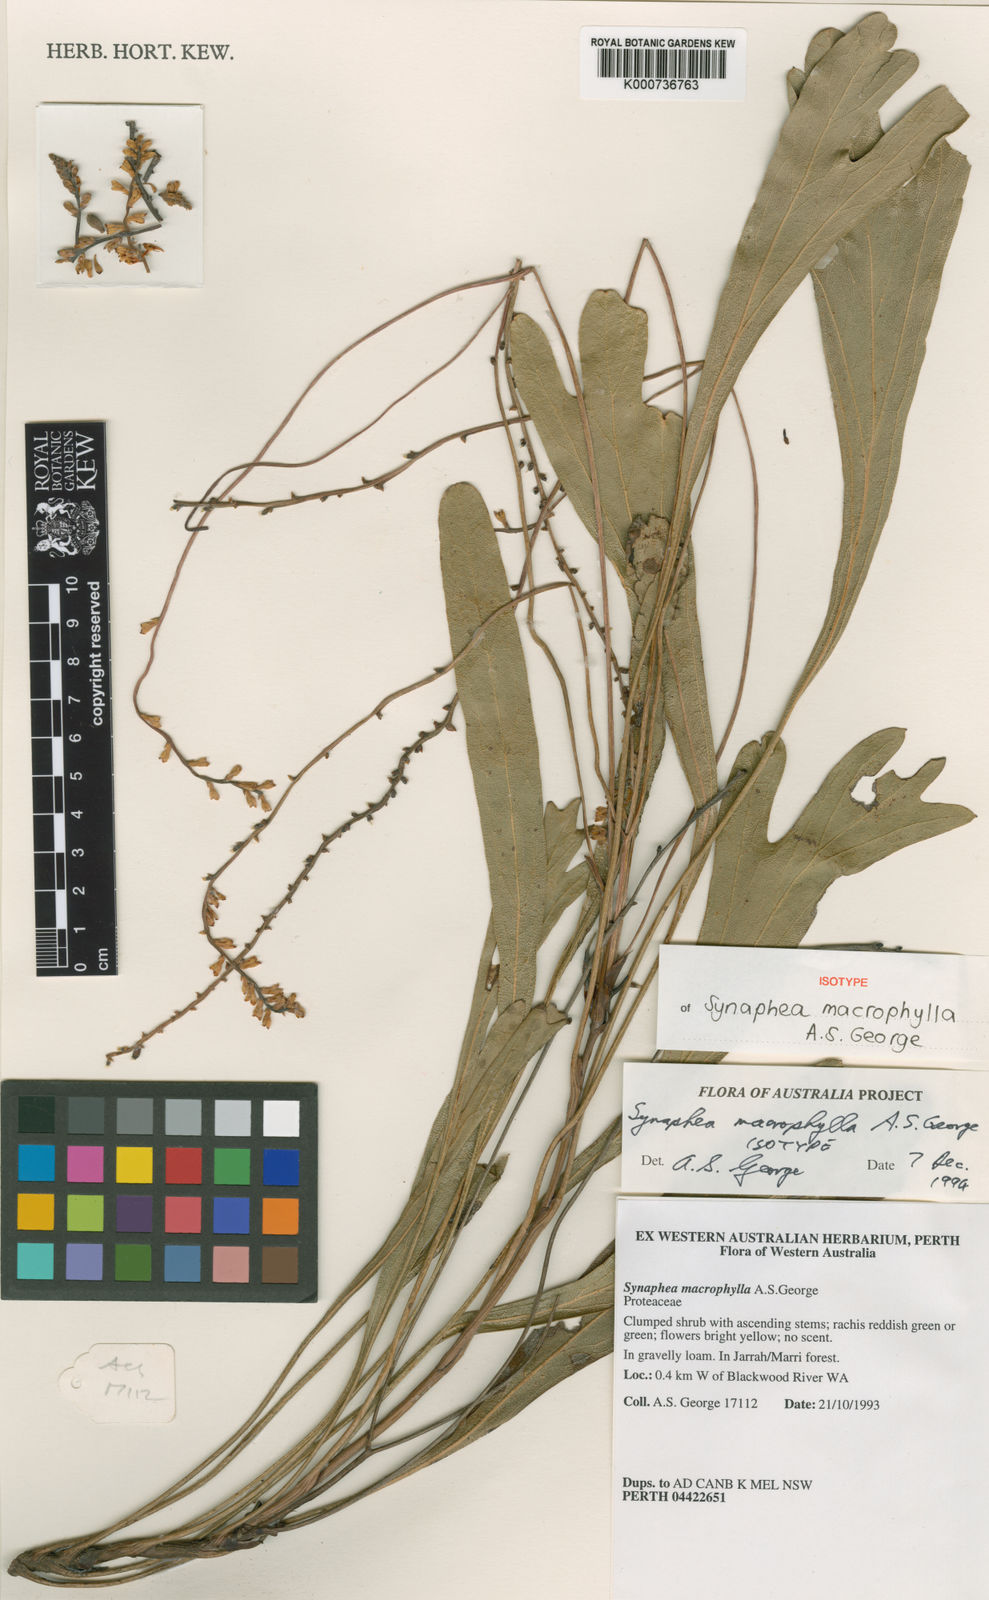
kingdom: Plantae
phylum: Tracheophyta
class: Magnoliopsida
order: Proteales
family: Proteaceae
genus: Synaphea
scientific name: Synaphea macrophylla
